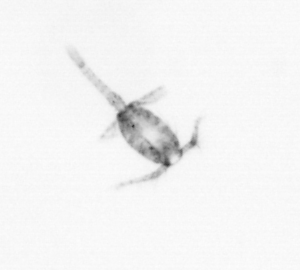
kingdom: Animalia
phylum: Arthropoda
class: Copepoda
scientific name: Copepoda
